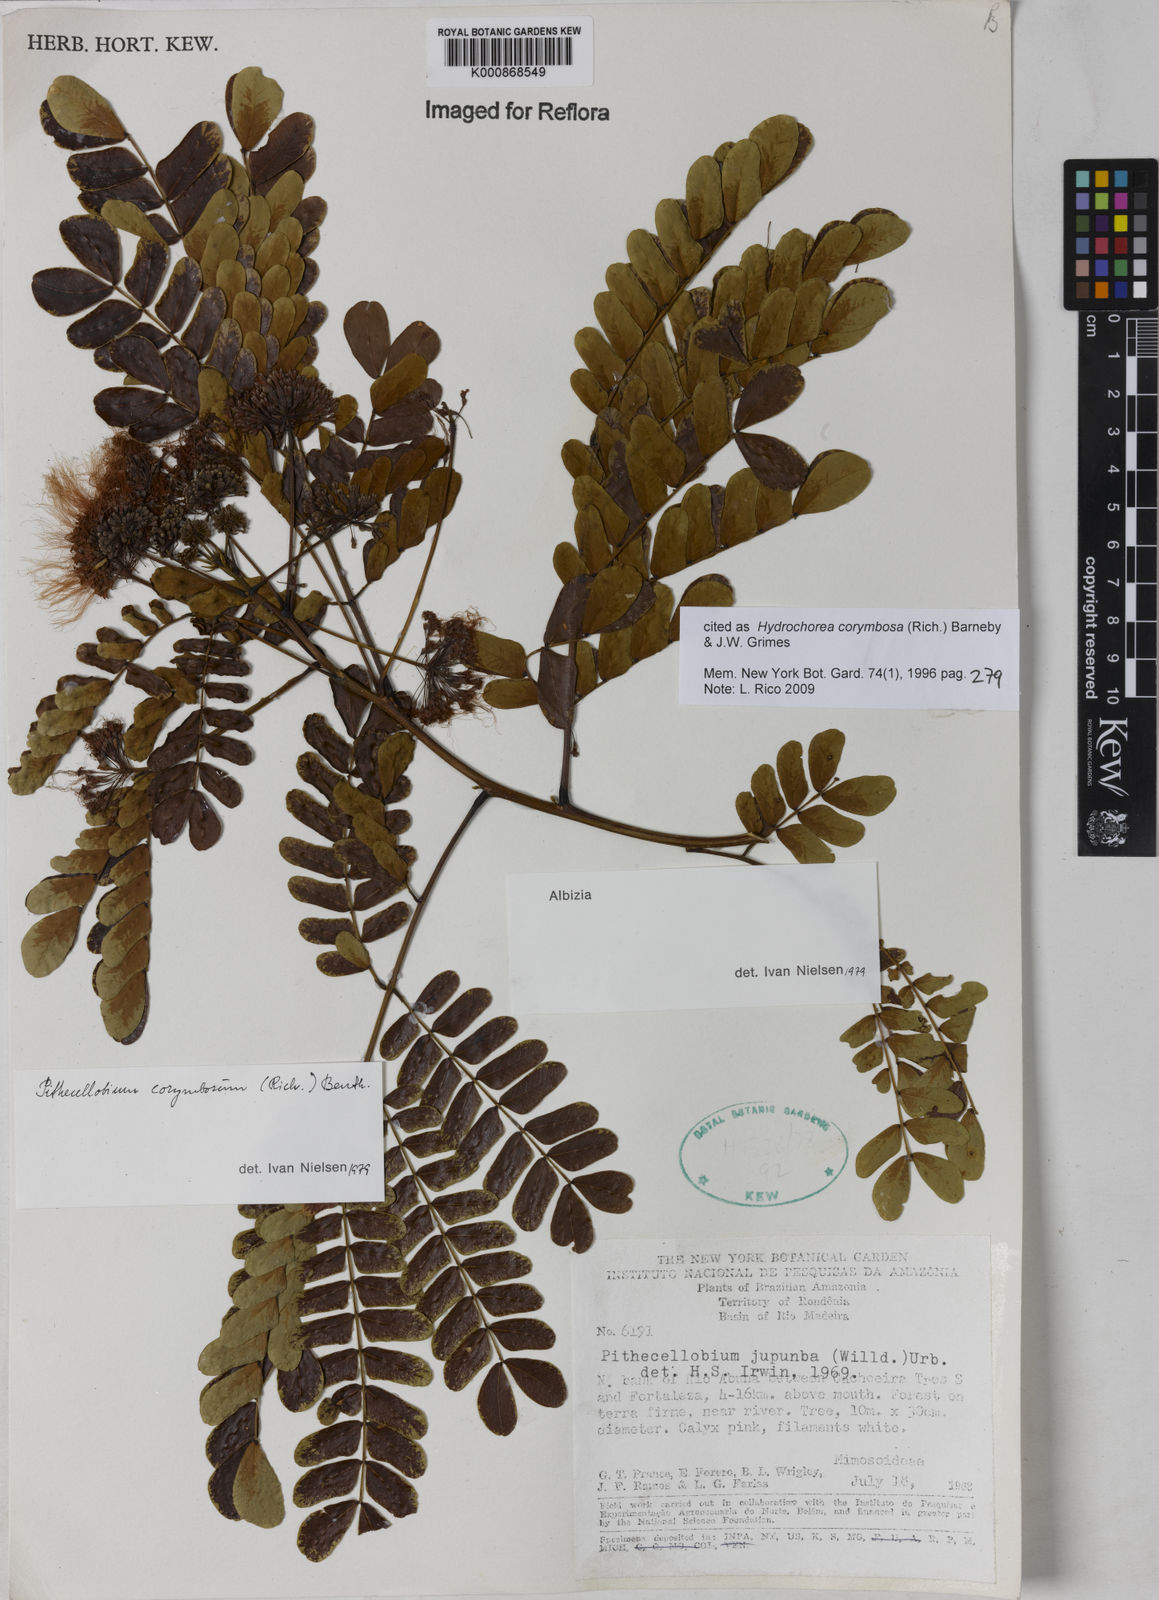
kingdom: Plantae
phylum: Tracheophyta
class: Magnoliopsida
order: Fabales
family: Fabaceae
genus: Hydrochorea
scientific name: Hydrochorea corymbosa
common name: Swamp manariballi
